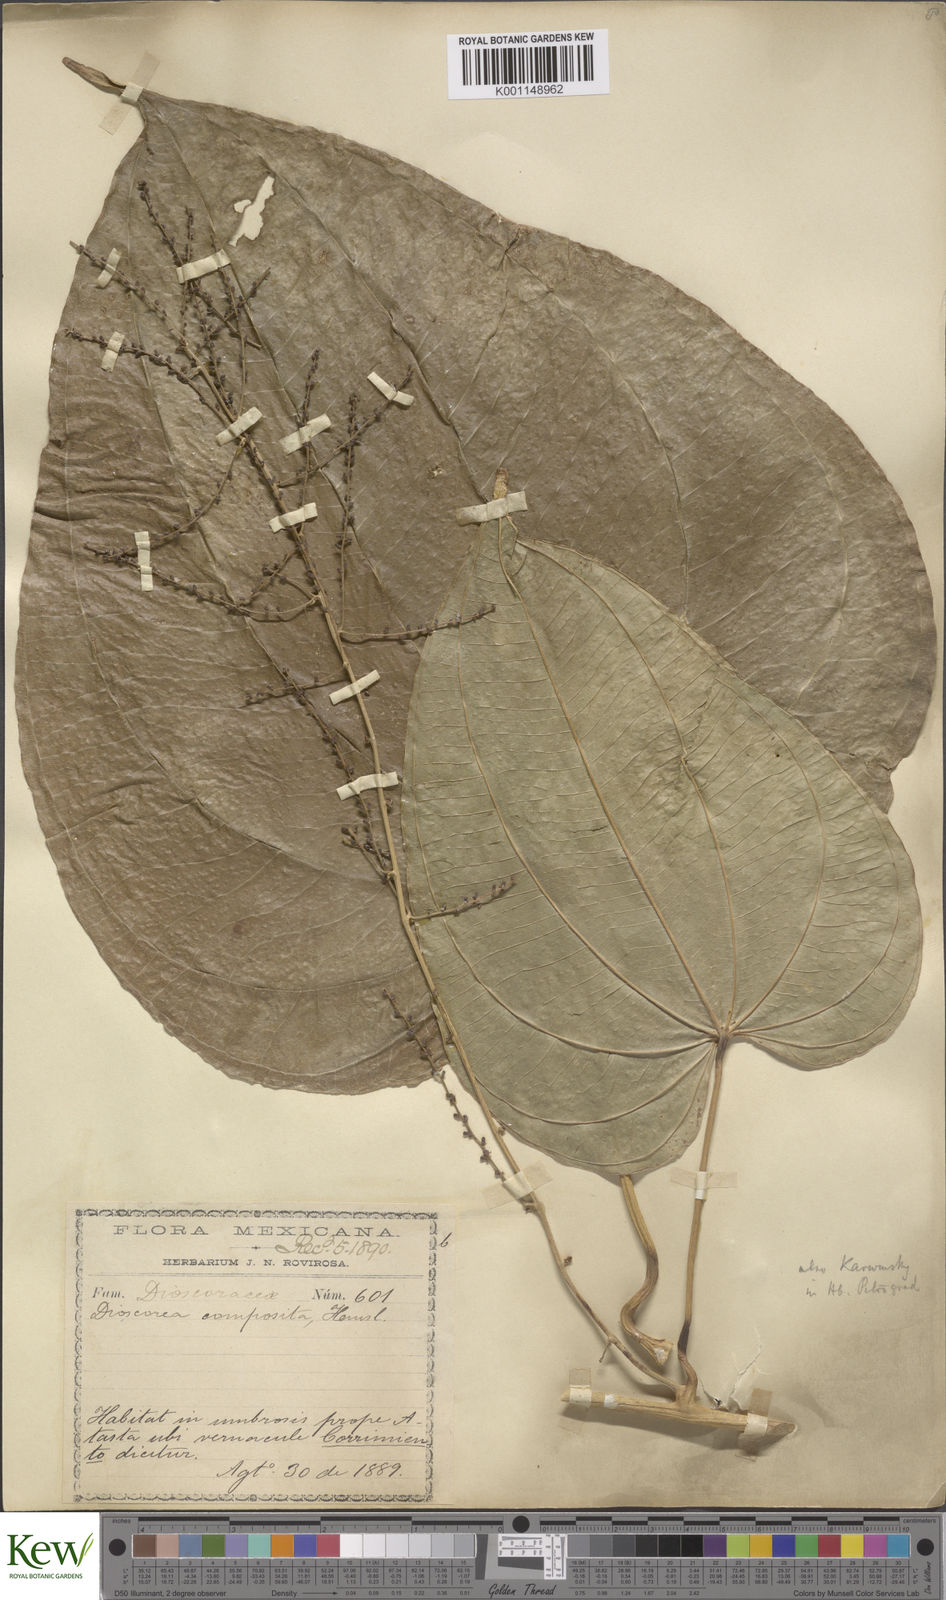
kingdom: Plantae
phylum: Tracheophyta
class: Liliopsida
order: Dioscoreales
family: Dioscoreaceae
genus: Dioscorea
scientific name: Dioscorea mexicana
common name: Mexican yam
